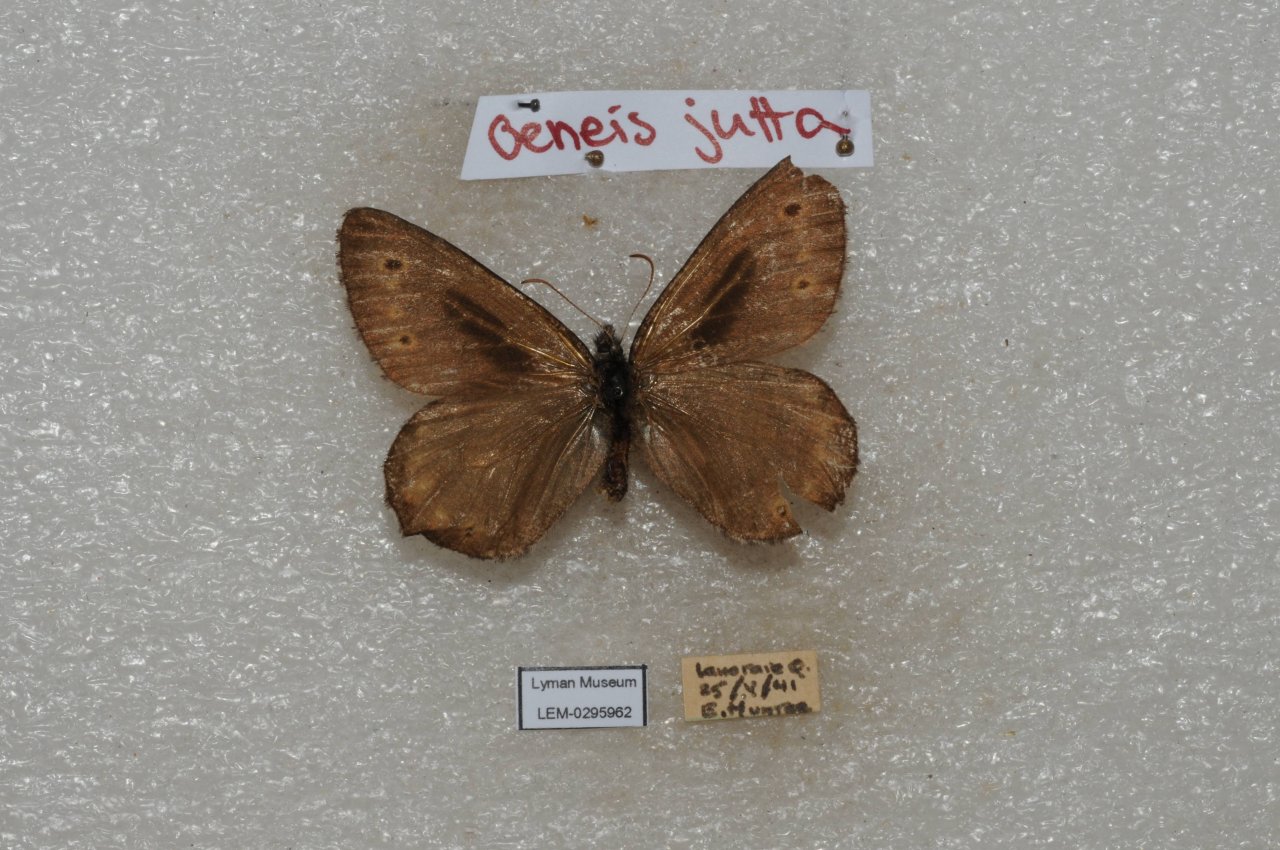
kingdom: Animalia
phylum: Arthropoda
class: Insecta
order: Lepidoptera
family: Nymphalidae
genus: Oeneis
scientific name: Oeneis jutta
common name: Jutta Arctic
